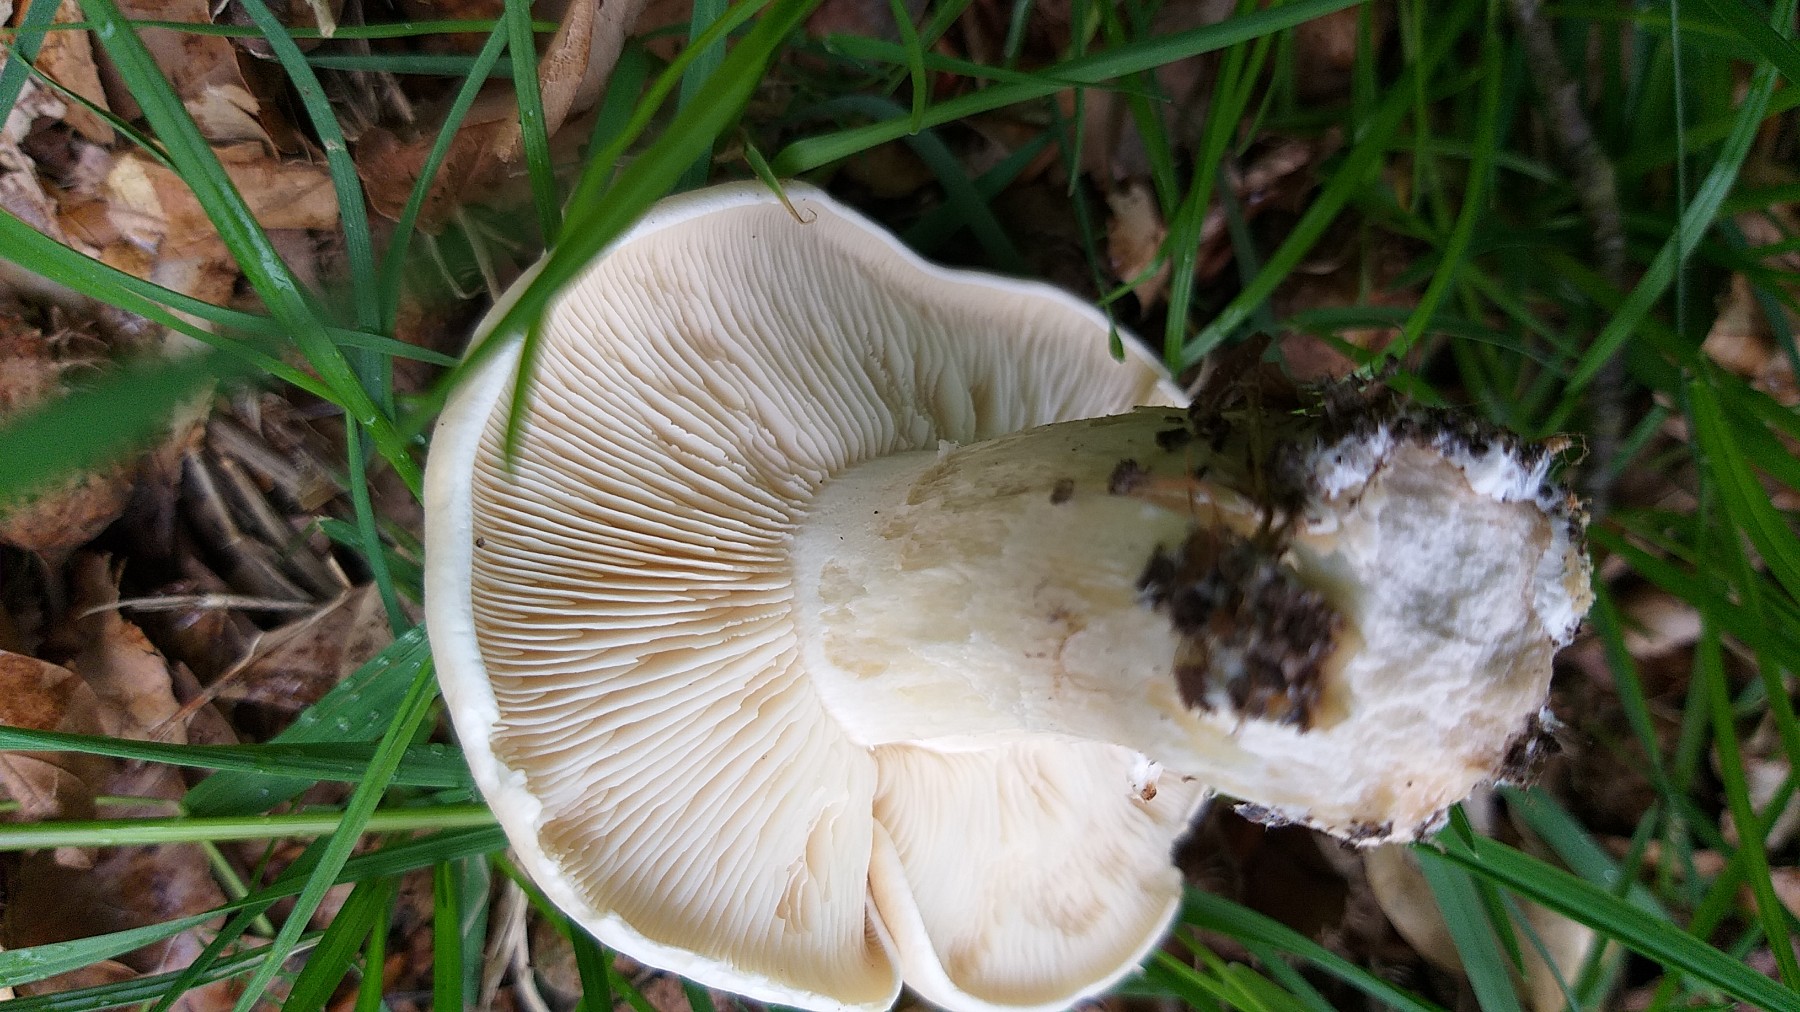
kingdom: Fungi
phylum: Basidiomycota
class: Agaricomycetes
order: Agaricales
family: Lyophyllaceae
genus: Calocybe
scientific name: Calocybe gambosa
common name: vårmusseron
